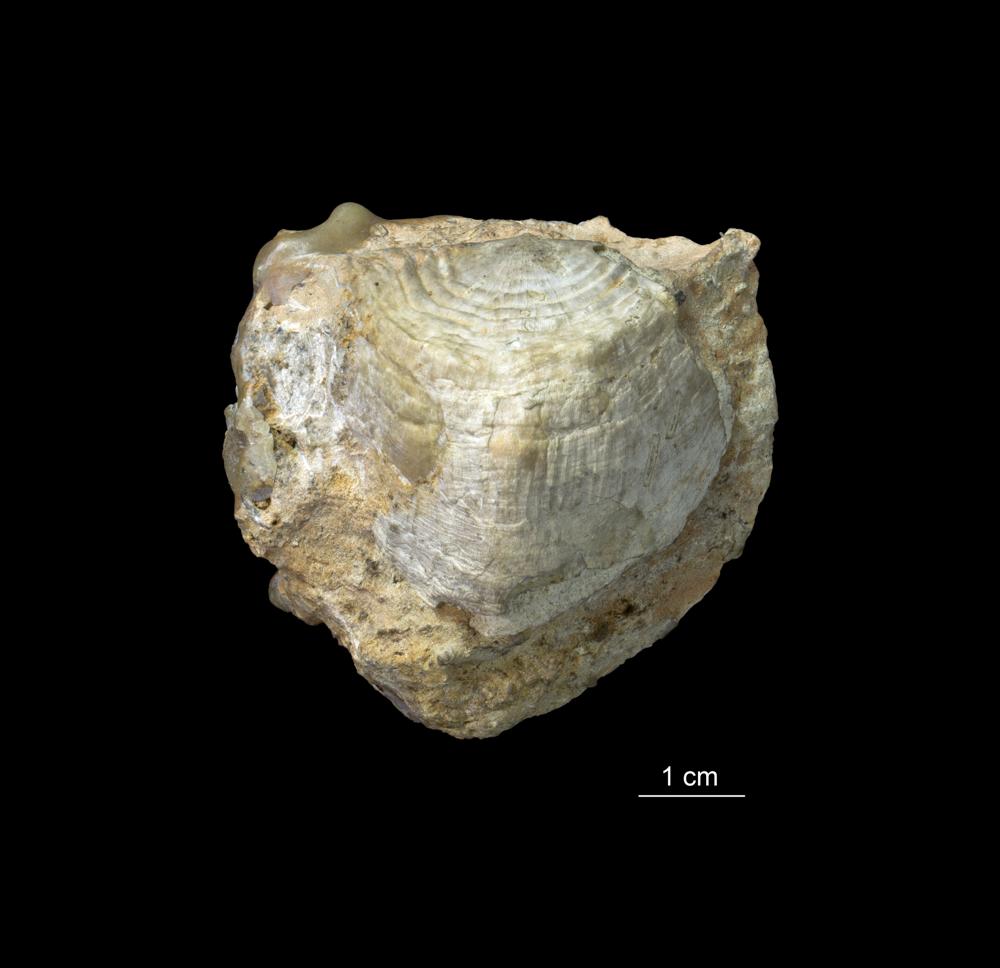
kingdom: Animalia
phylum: Brachiopoda
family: Rafinesquinidae
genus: Kiaeromena
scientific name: Kiaeromena Leptaena estonensis
